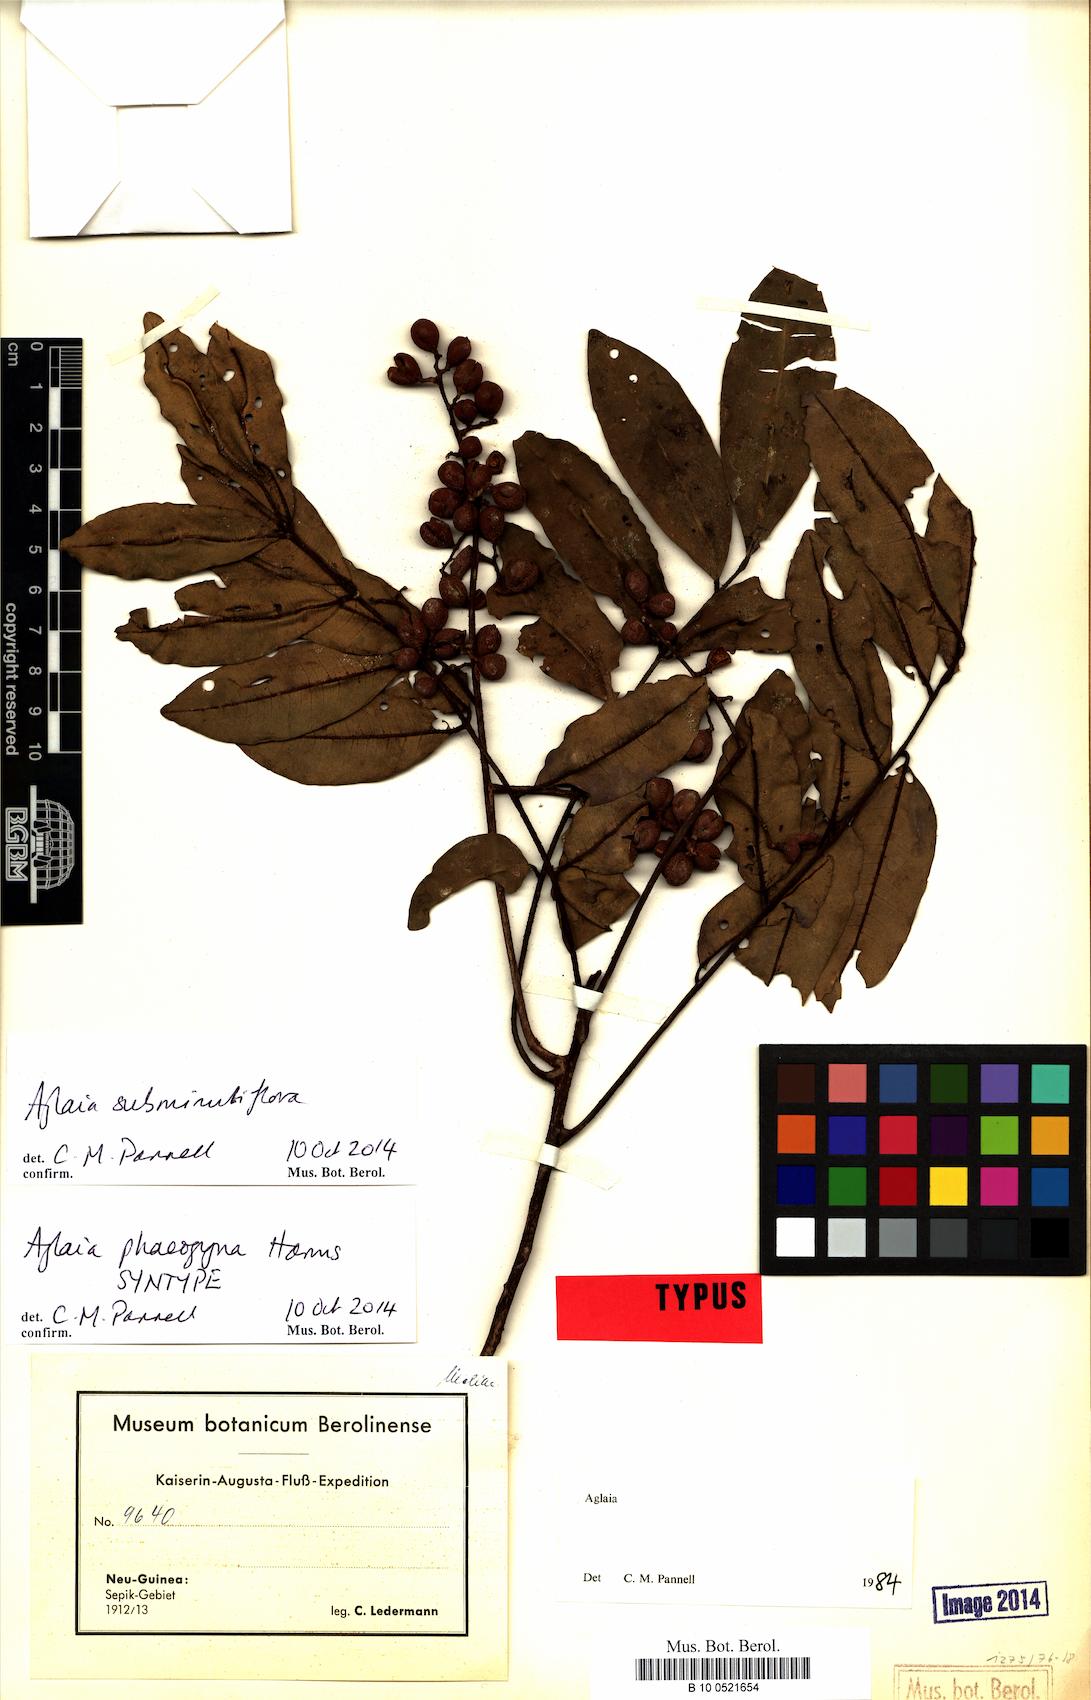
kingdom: Plantae
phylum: Tracheophyta
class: Magnoliopsida
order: Sapindales
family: Meliaceae
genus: Aglaia
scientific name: Aglaia phaeogyna
